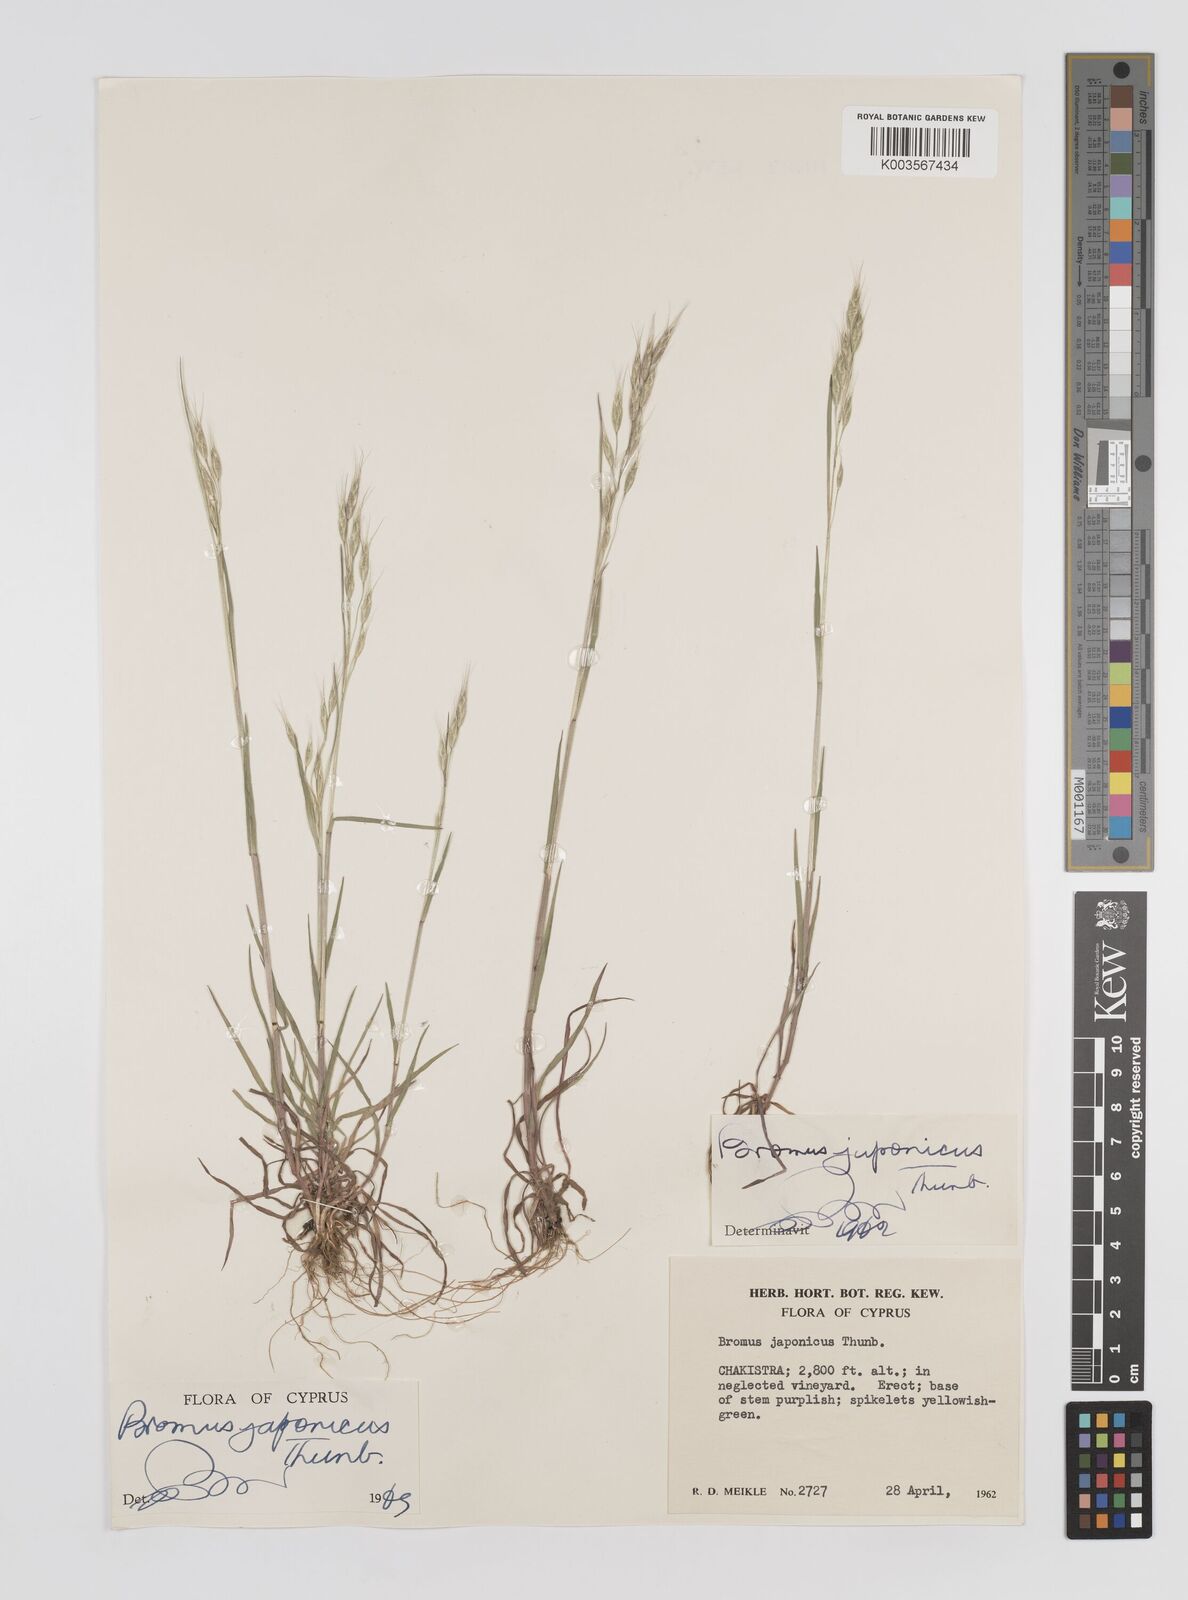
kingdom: Plantae
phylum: Tracheophyta
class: Liliopsida
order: Poales
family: Poaceae
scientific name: Poaceae
